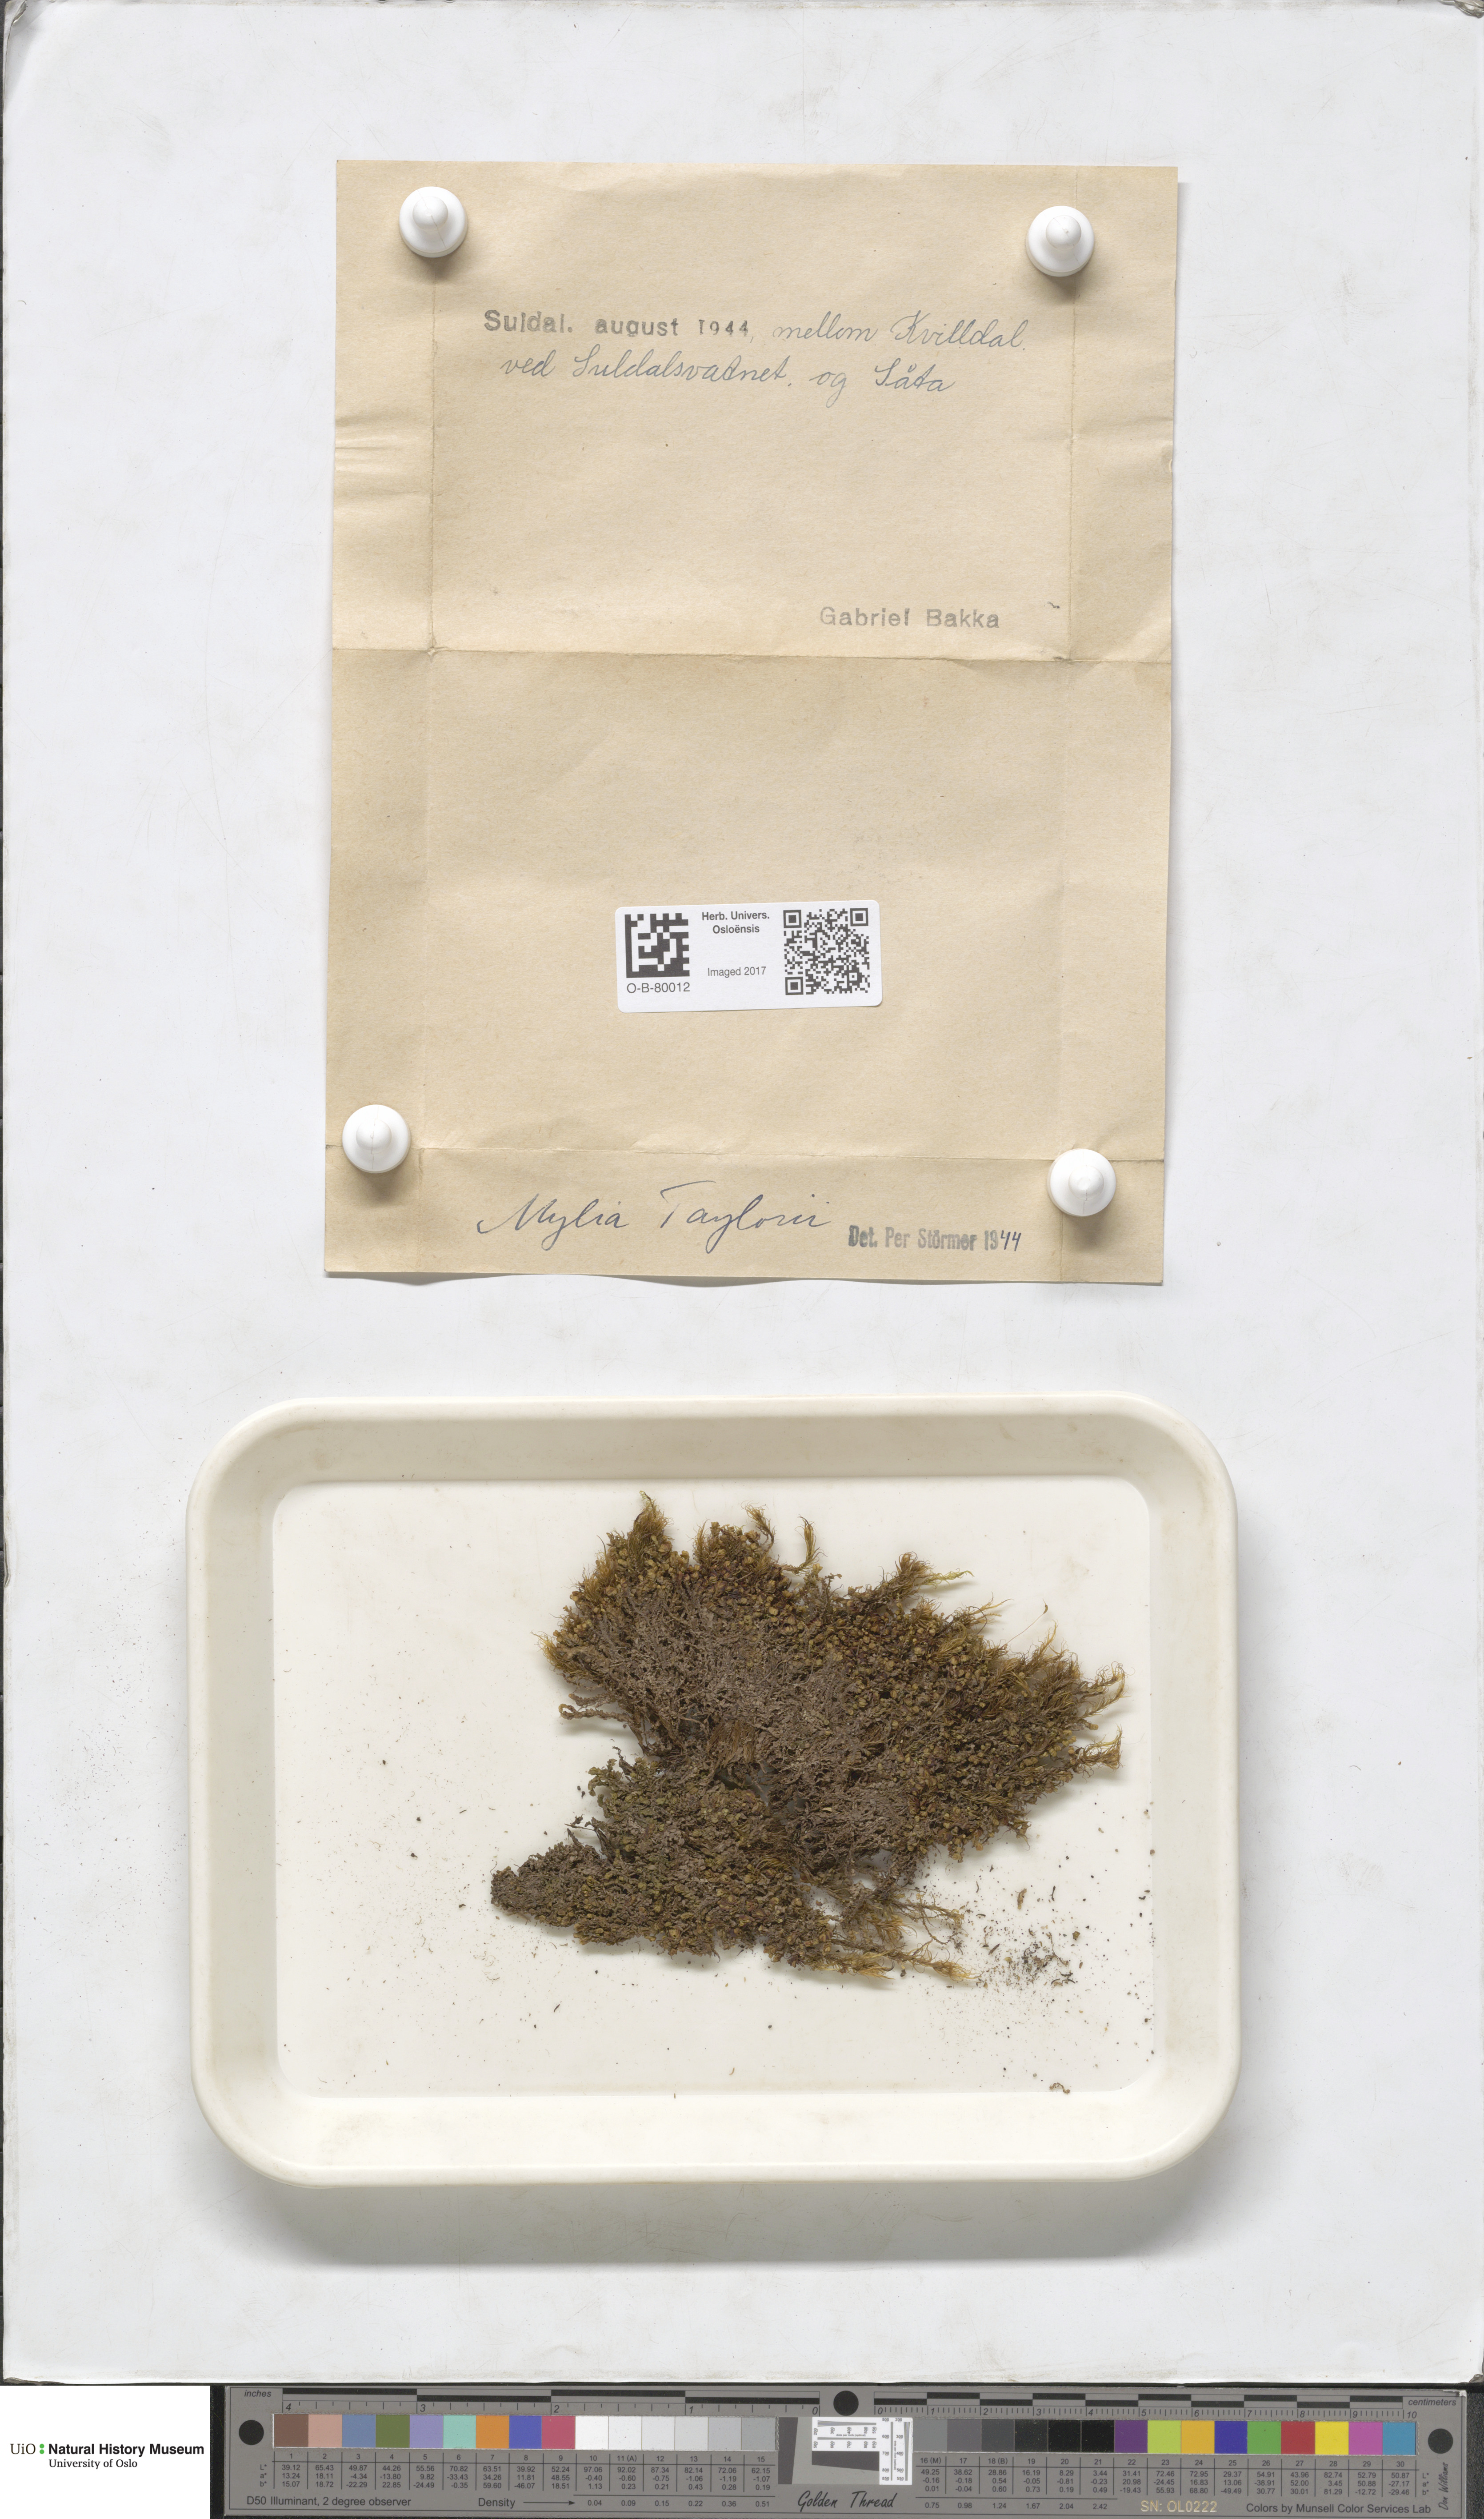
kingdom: Plantae
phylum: Marchantiophyta
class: Jungermanniopsida
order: Jungermanniales
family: Myliaceae
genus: Mylia
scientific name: Mylia taylorii
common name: Taylor s flapwort
